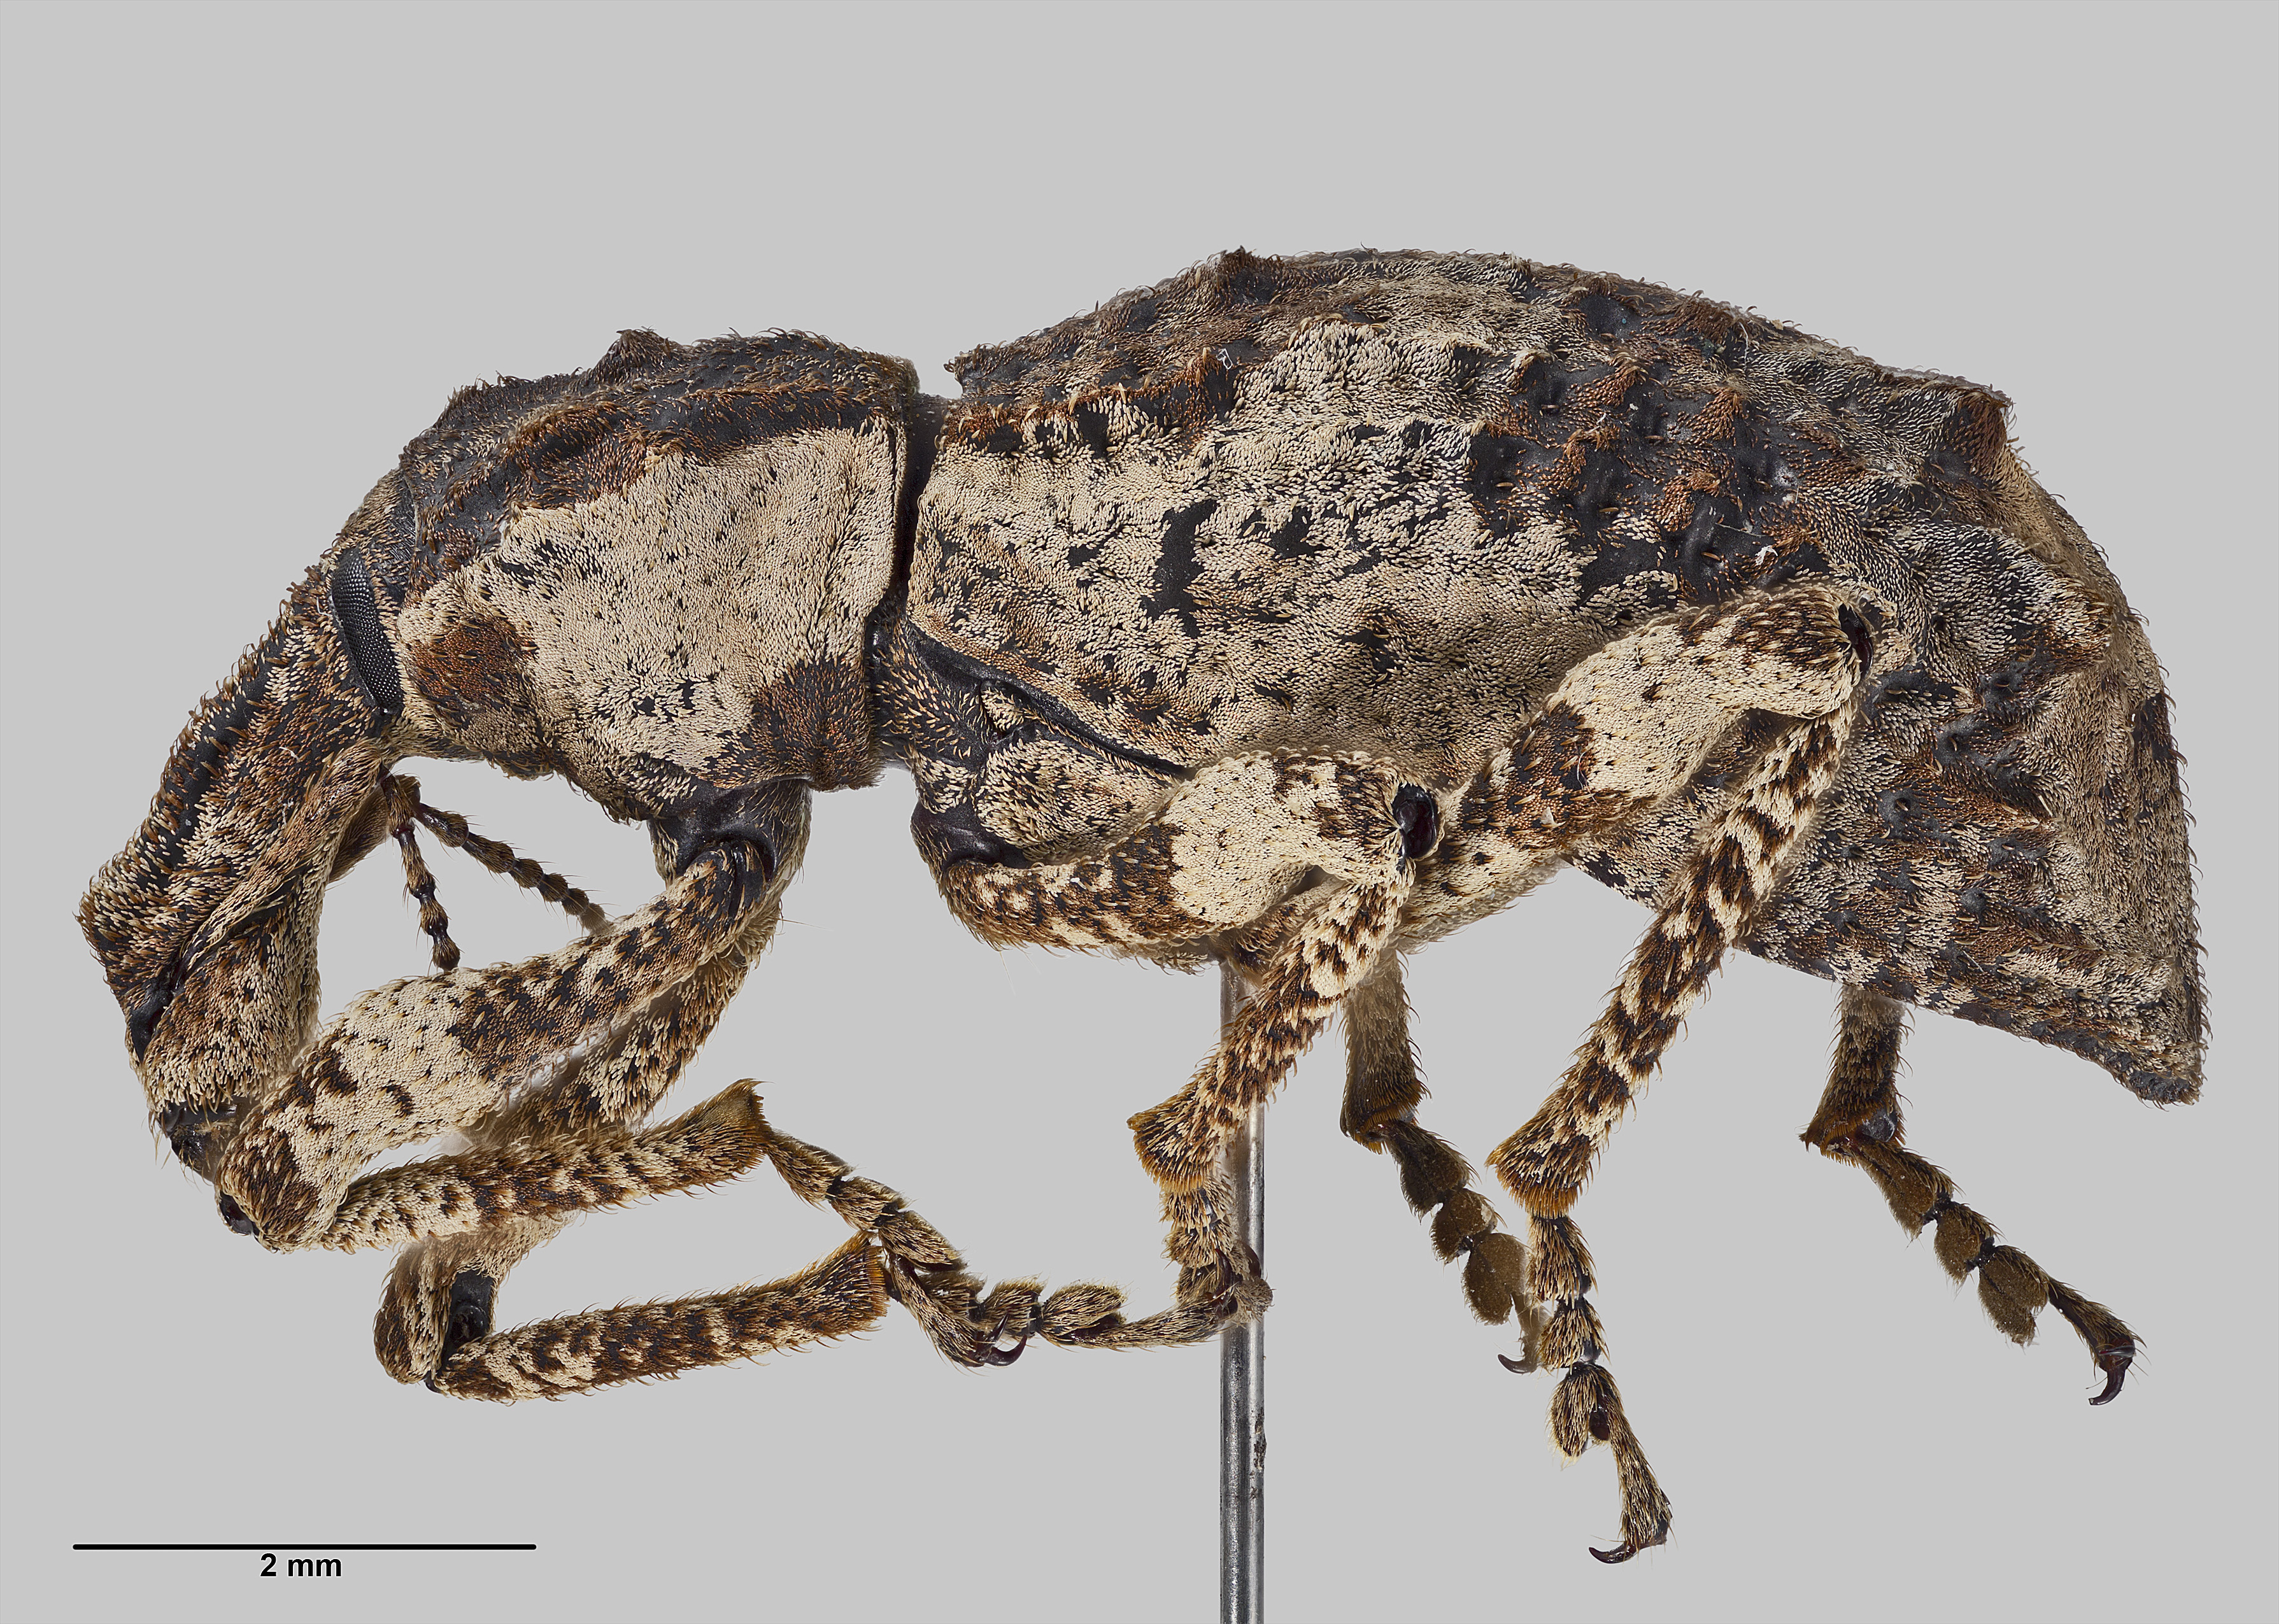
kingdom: Animalia
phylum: Arthropoda
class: Insecta
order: Coleoptera
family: Curculionidae
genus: Anagotus
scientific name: Anagotus turbotti
